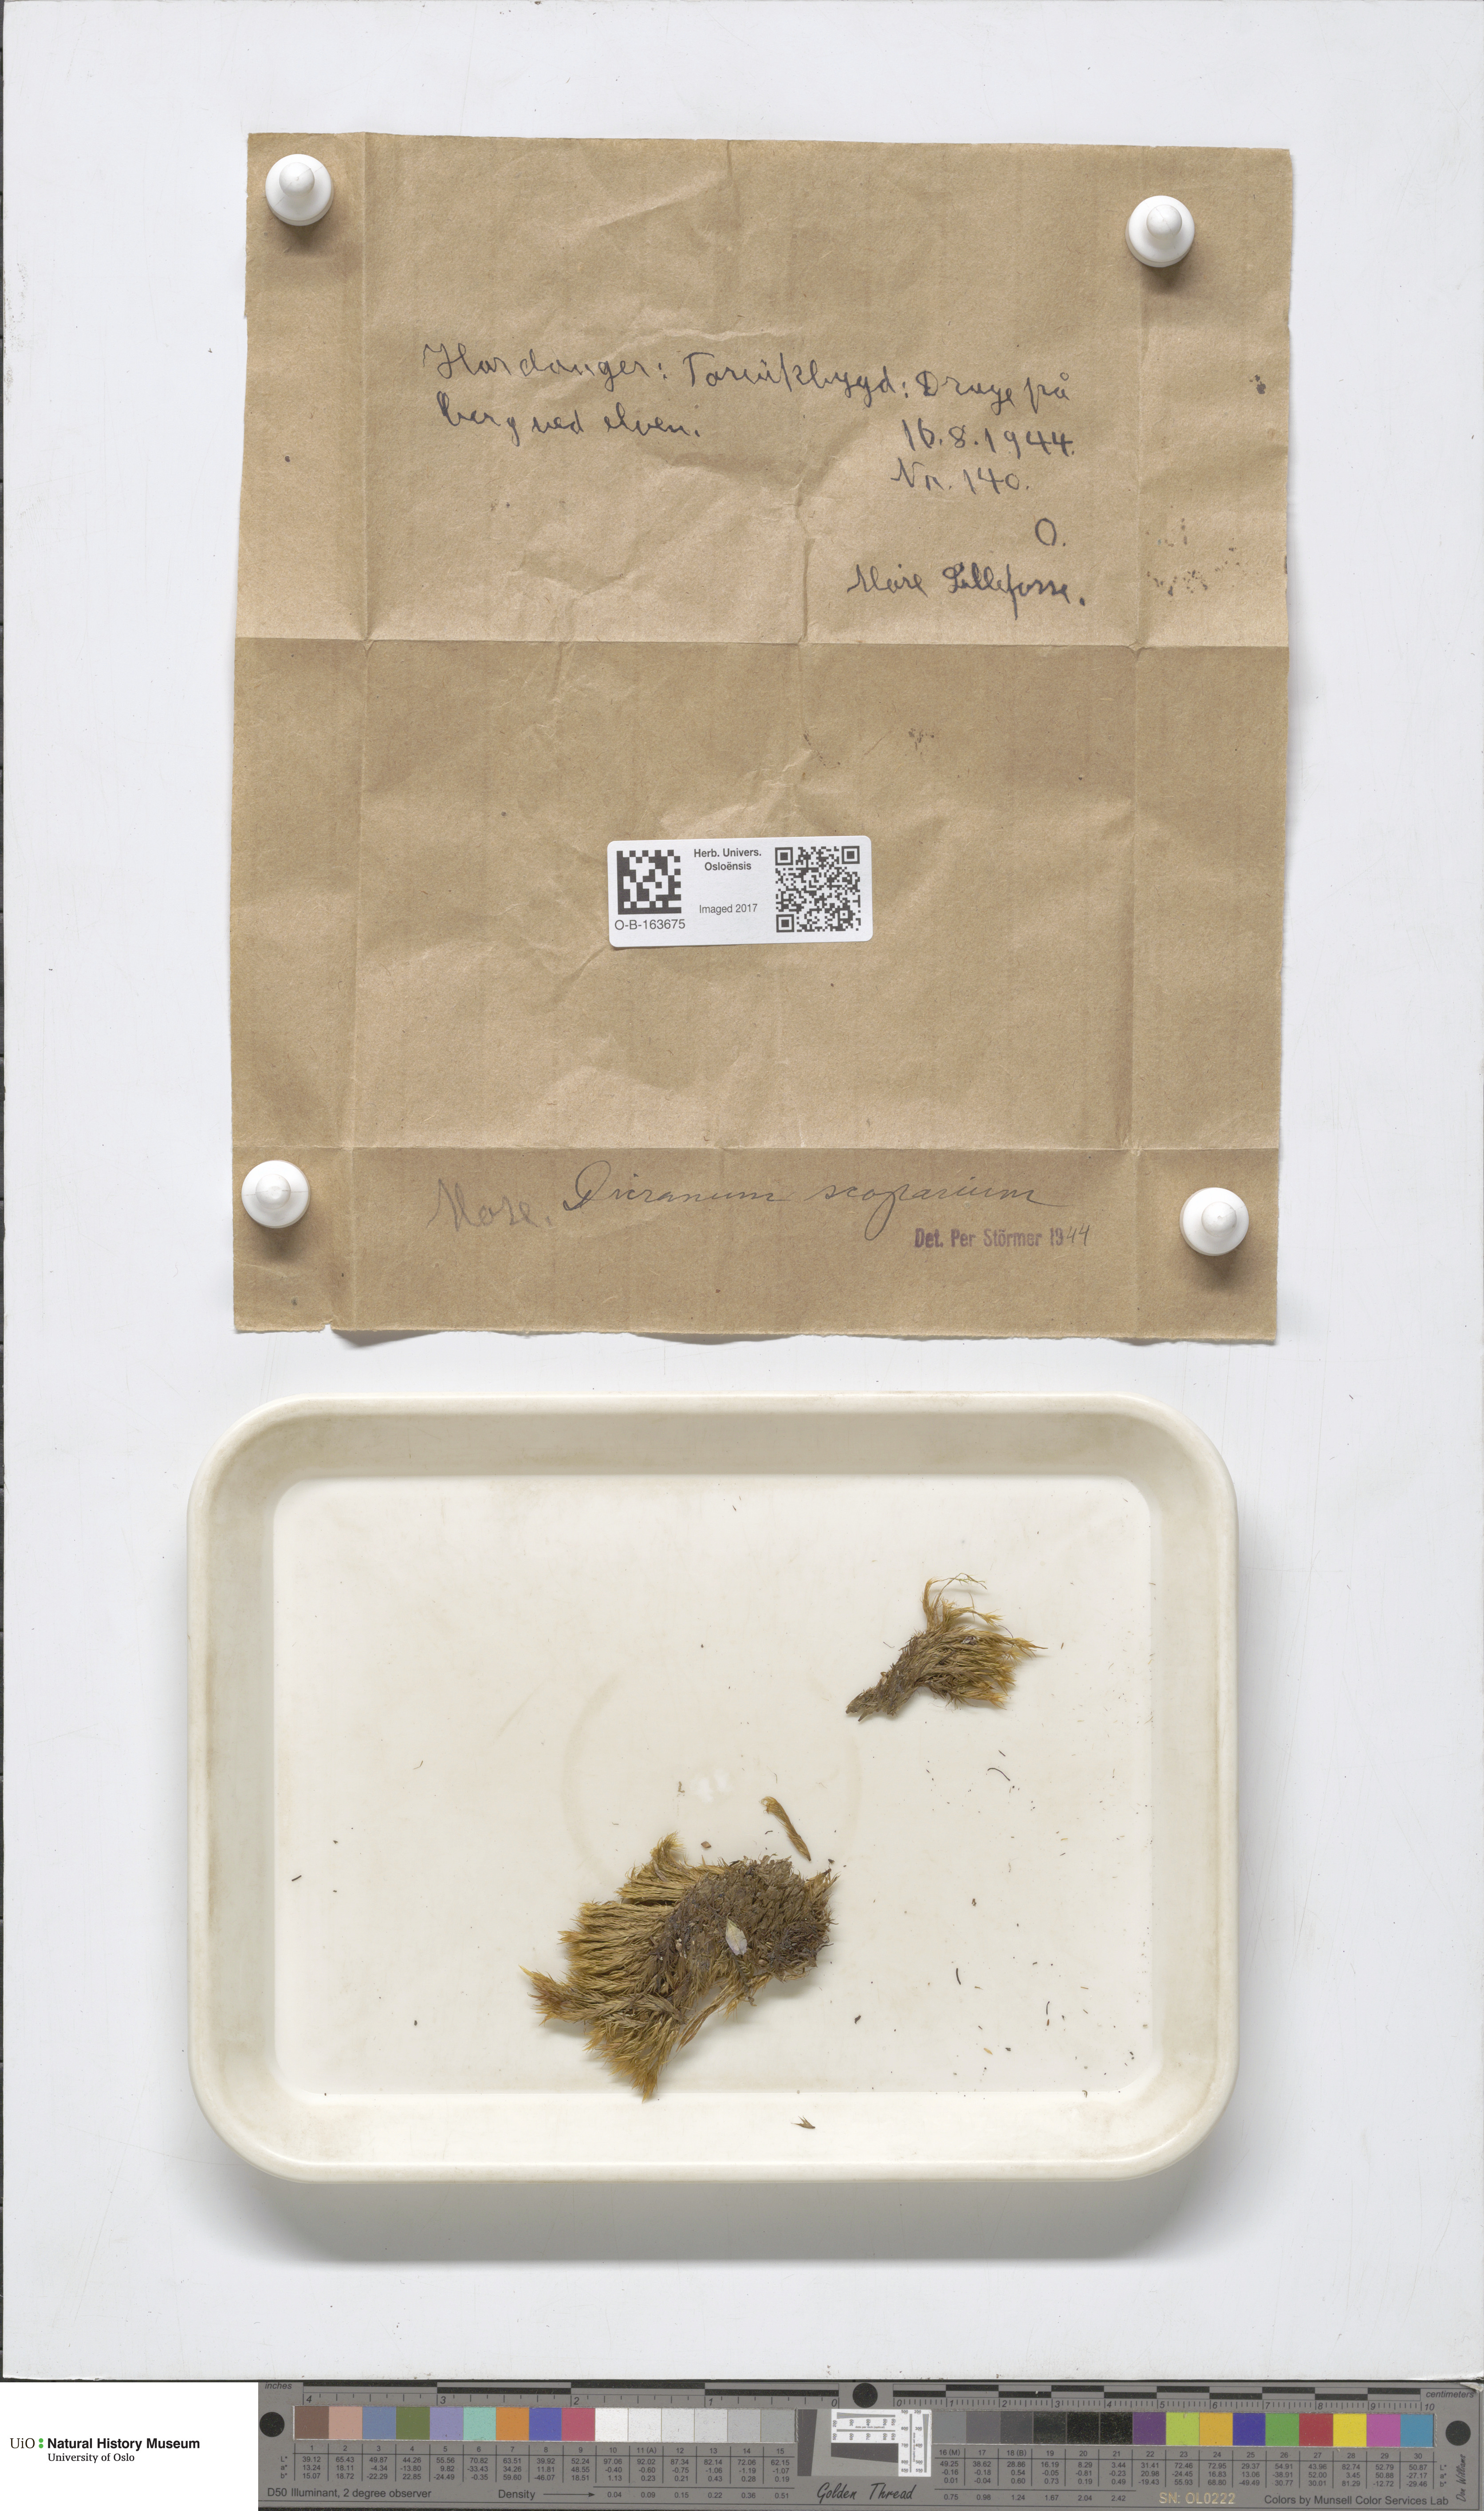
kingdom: Plantae
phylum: Bryophyta
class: Bryopsida
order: Dicranales
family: Dicranaceae
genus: Dicranum
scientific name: Dicranum scoparium
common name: Broom fork-moss
